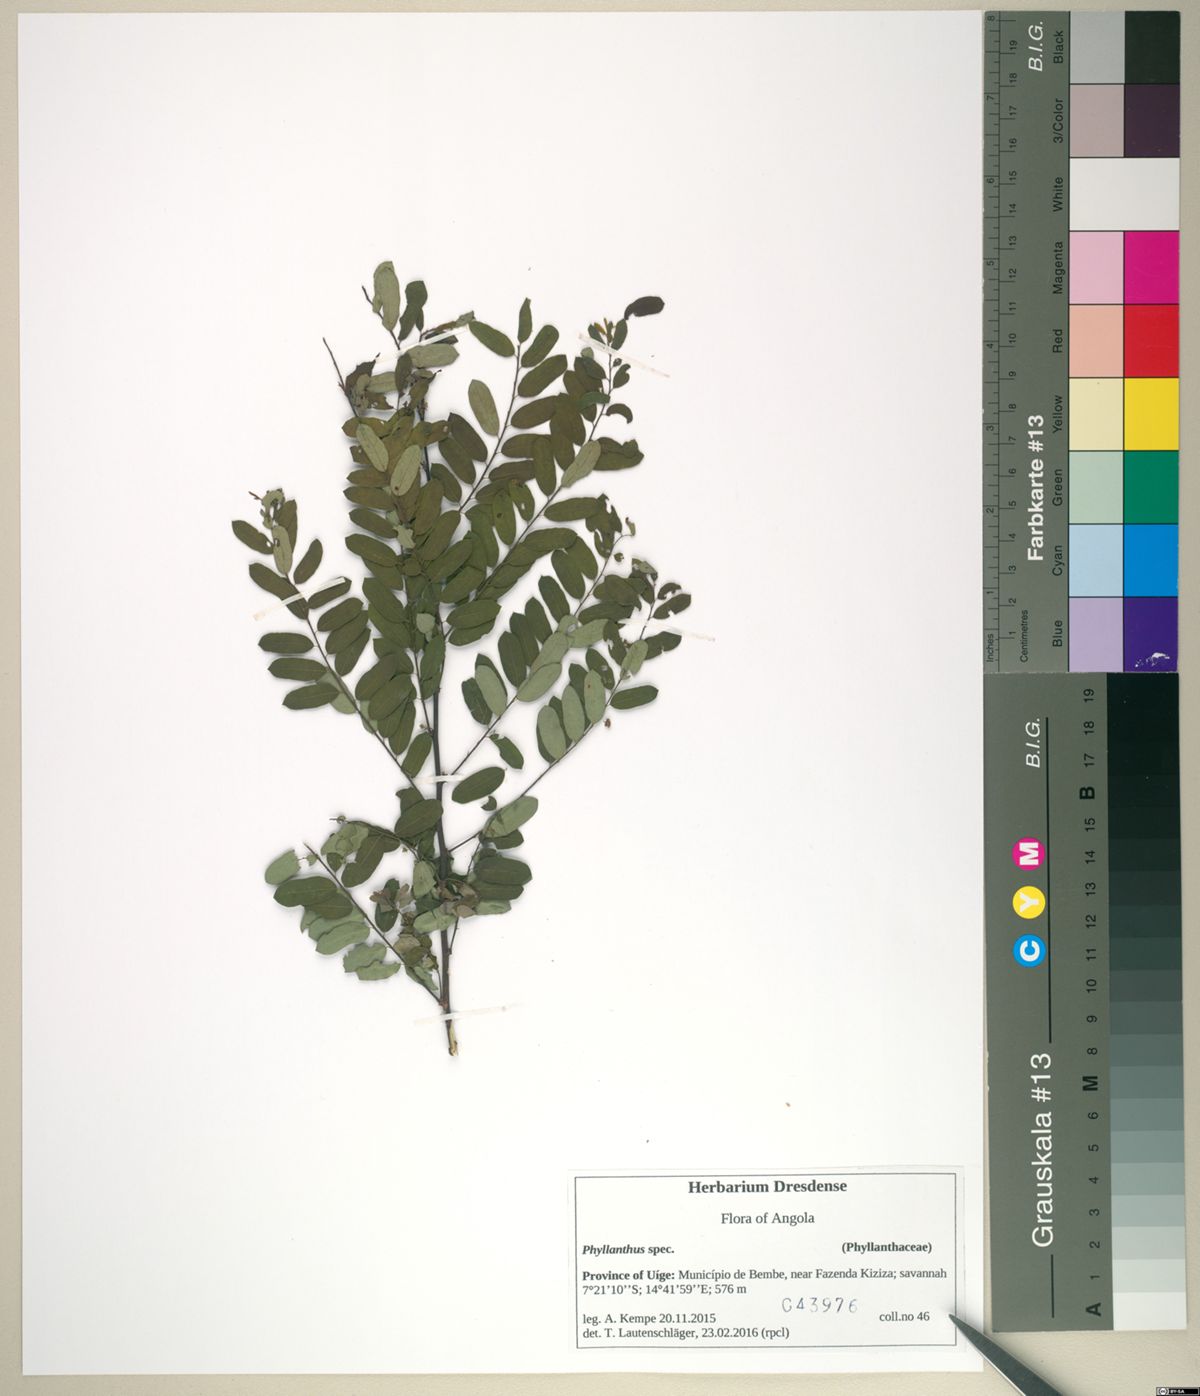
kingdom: Plantae
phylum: Tracheophyta
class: Magnoliopsida
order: Malpighiales
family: Phyllanthaceae
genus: Phyllanthus
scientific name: Phyllanthus ovalifolius
